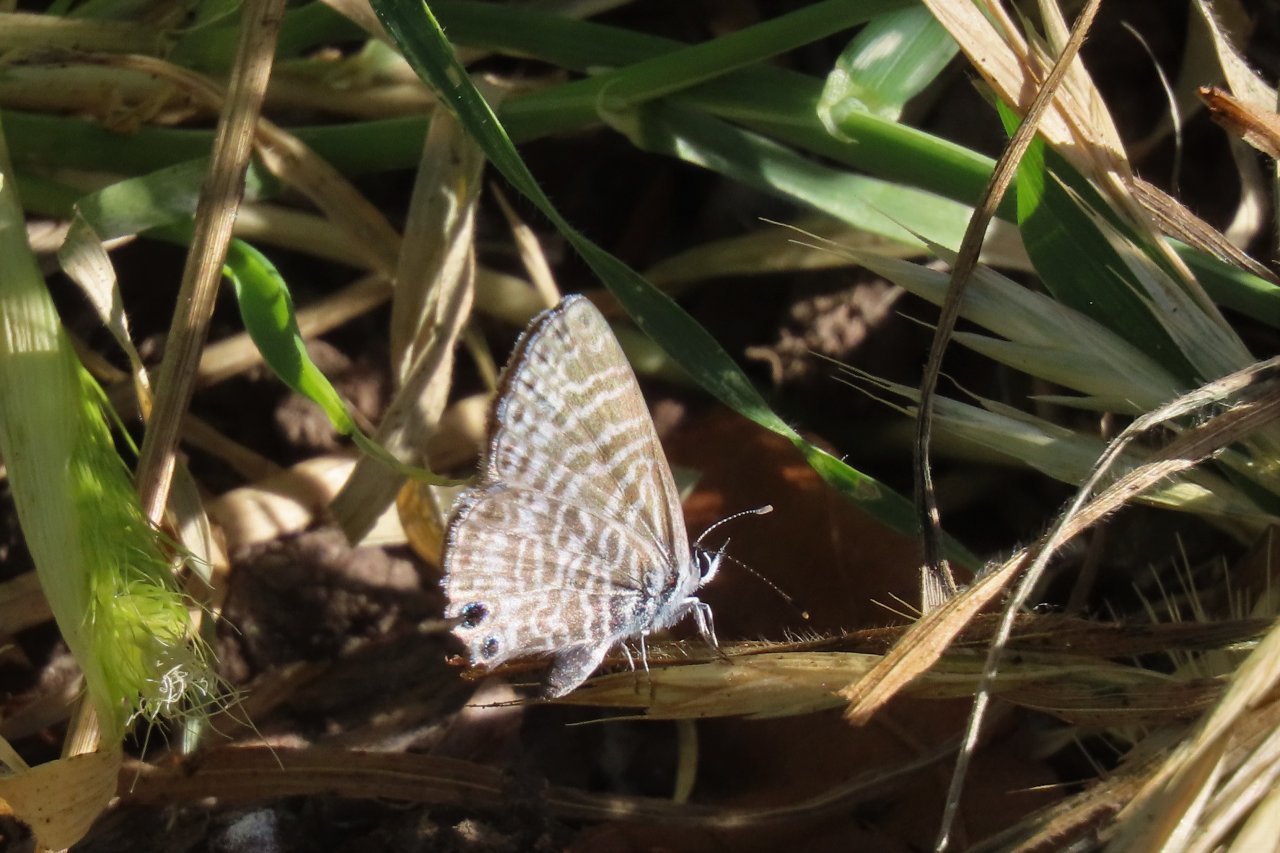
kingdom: Animalia
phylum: Arthropoda
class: Insecta
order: Lepidoptera
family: Lycaenidae
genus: Leptotes
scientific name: Leptotes marina
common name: Marine Blue
